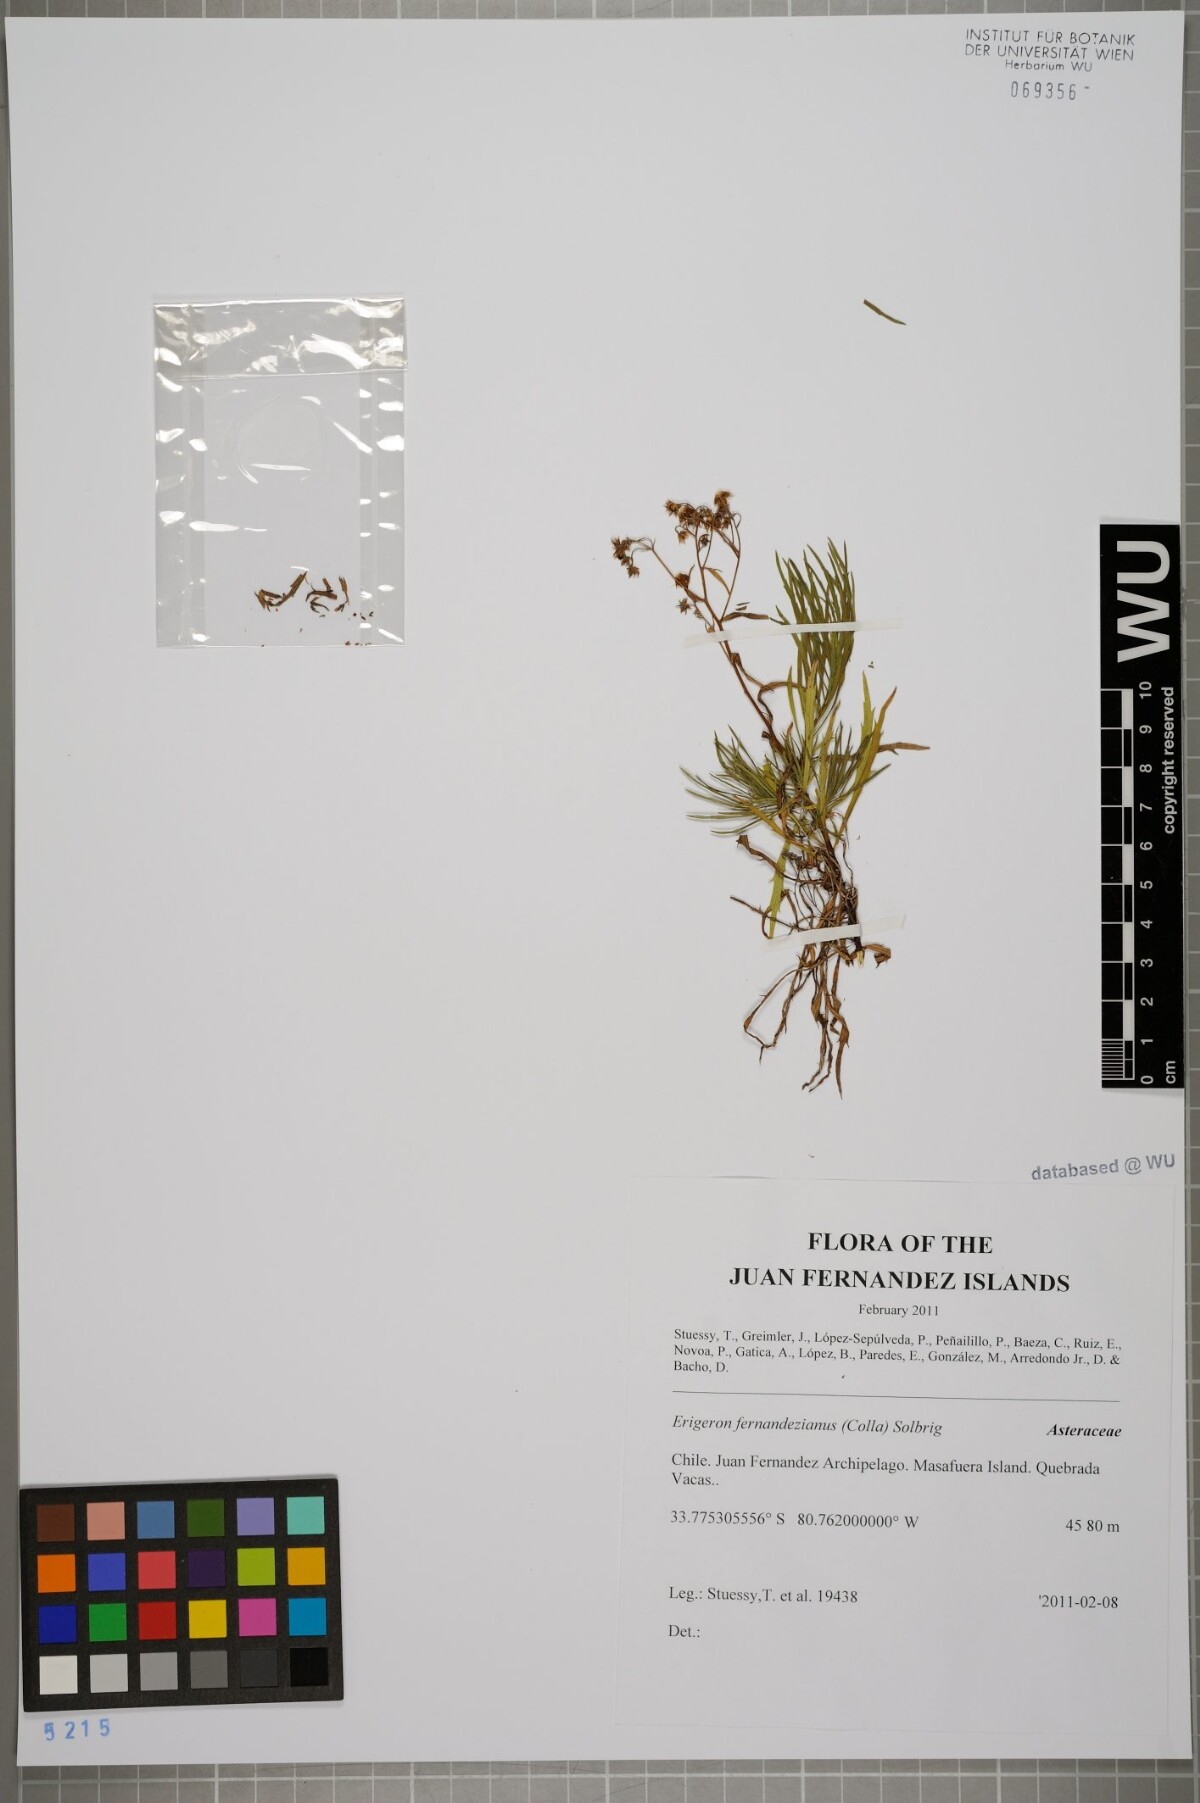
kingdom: Plantae
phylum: Tracheophyta
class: Magnoliopsida
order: Asterales
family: Asteraceae
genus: Erigeron
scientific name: Erigeron fernandezianus
